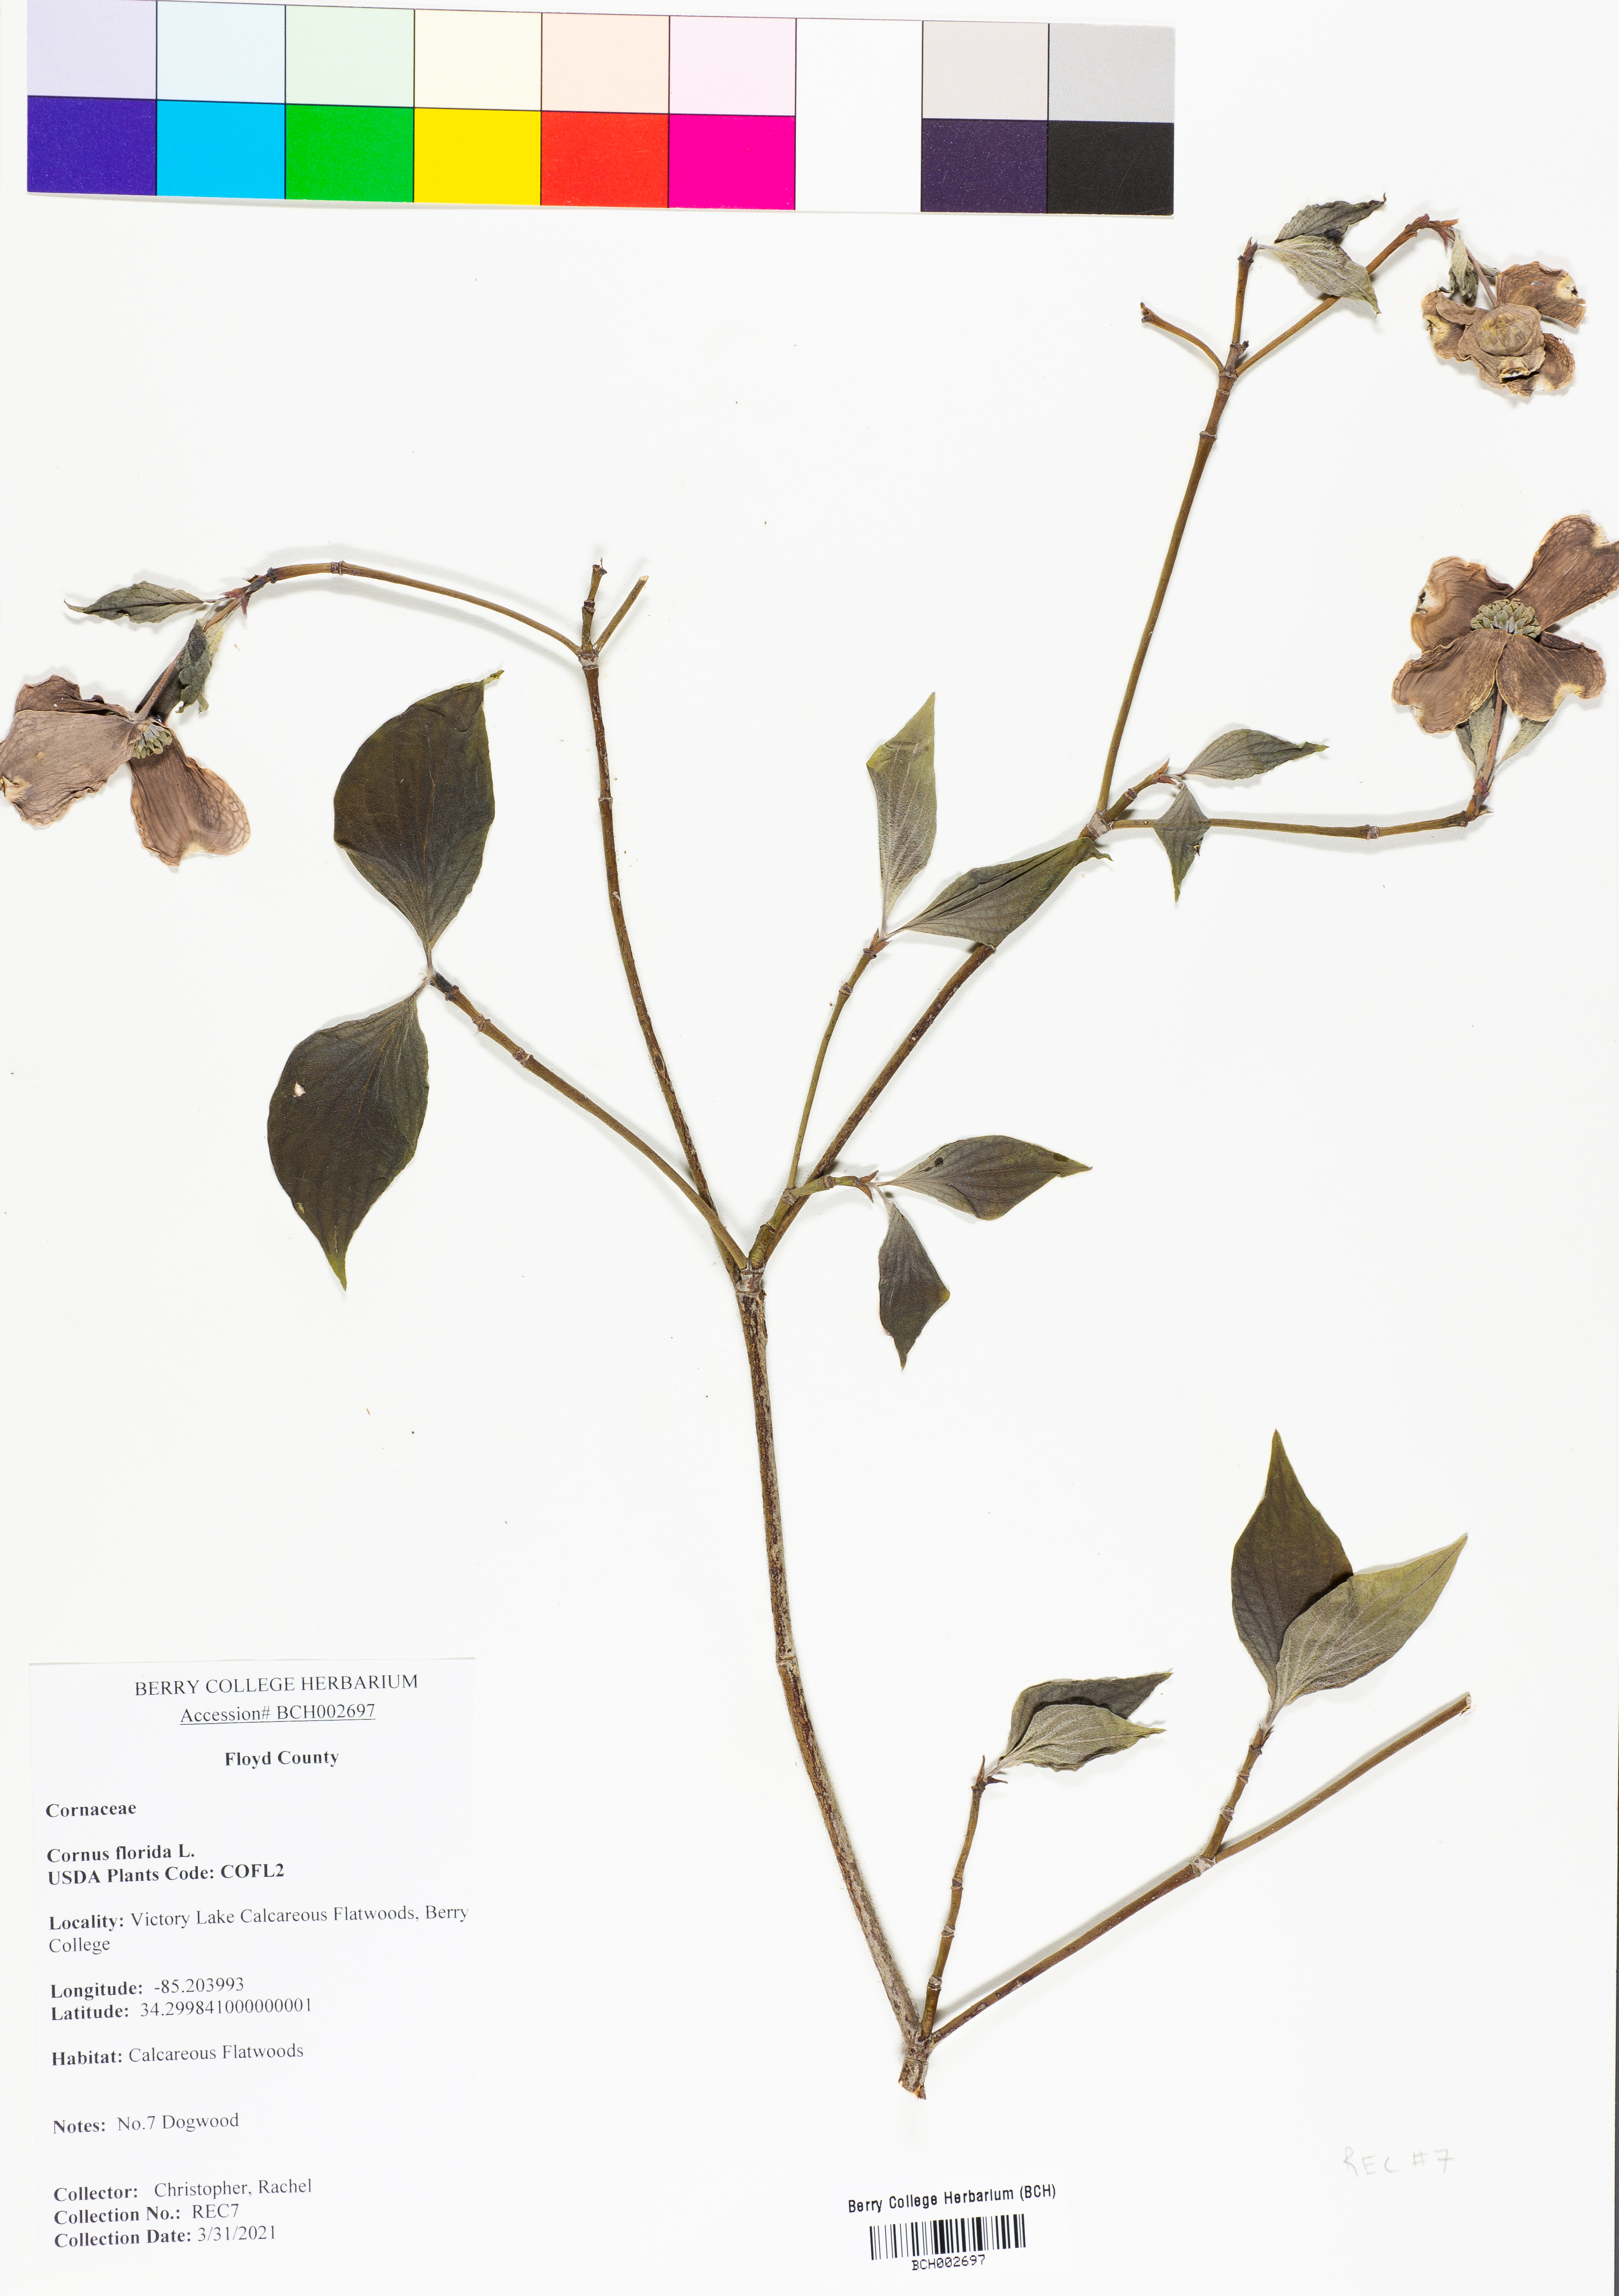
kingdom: Plantae
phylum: Tracheophyta
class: Magnoliopsida
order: Cornales
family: Cornaceae
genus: Cornus
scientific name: Cornus florida
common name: Flowering dogwood
